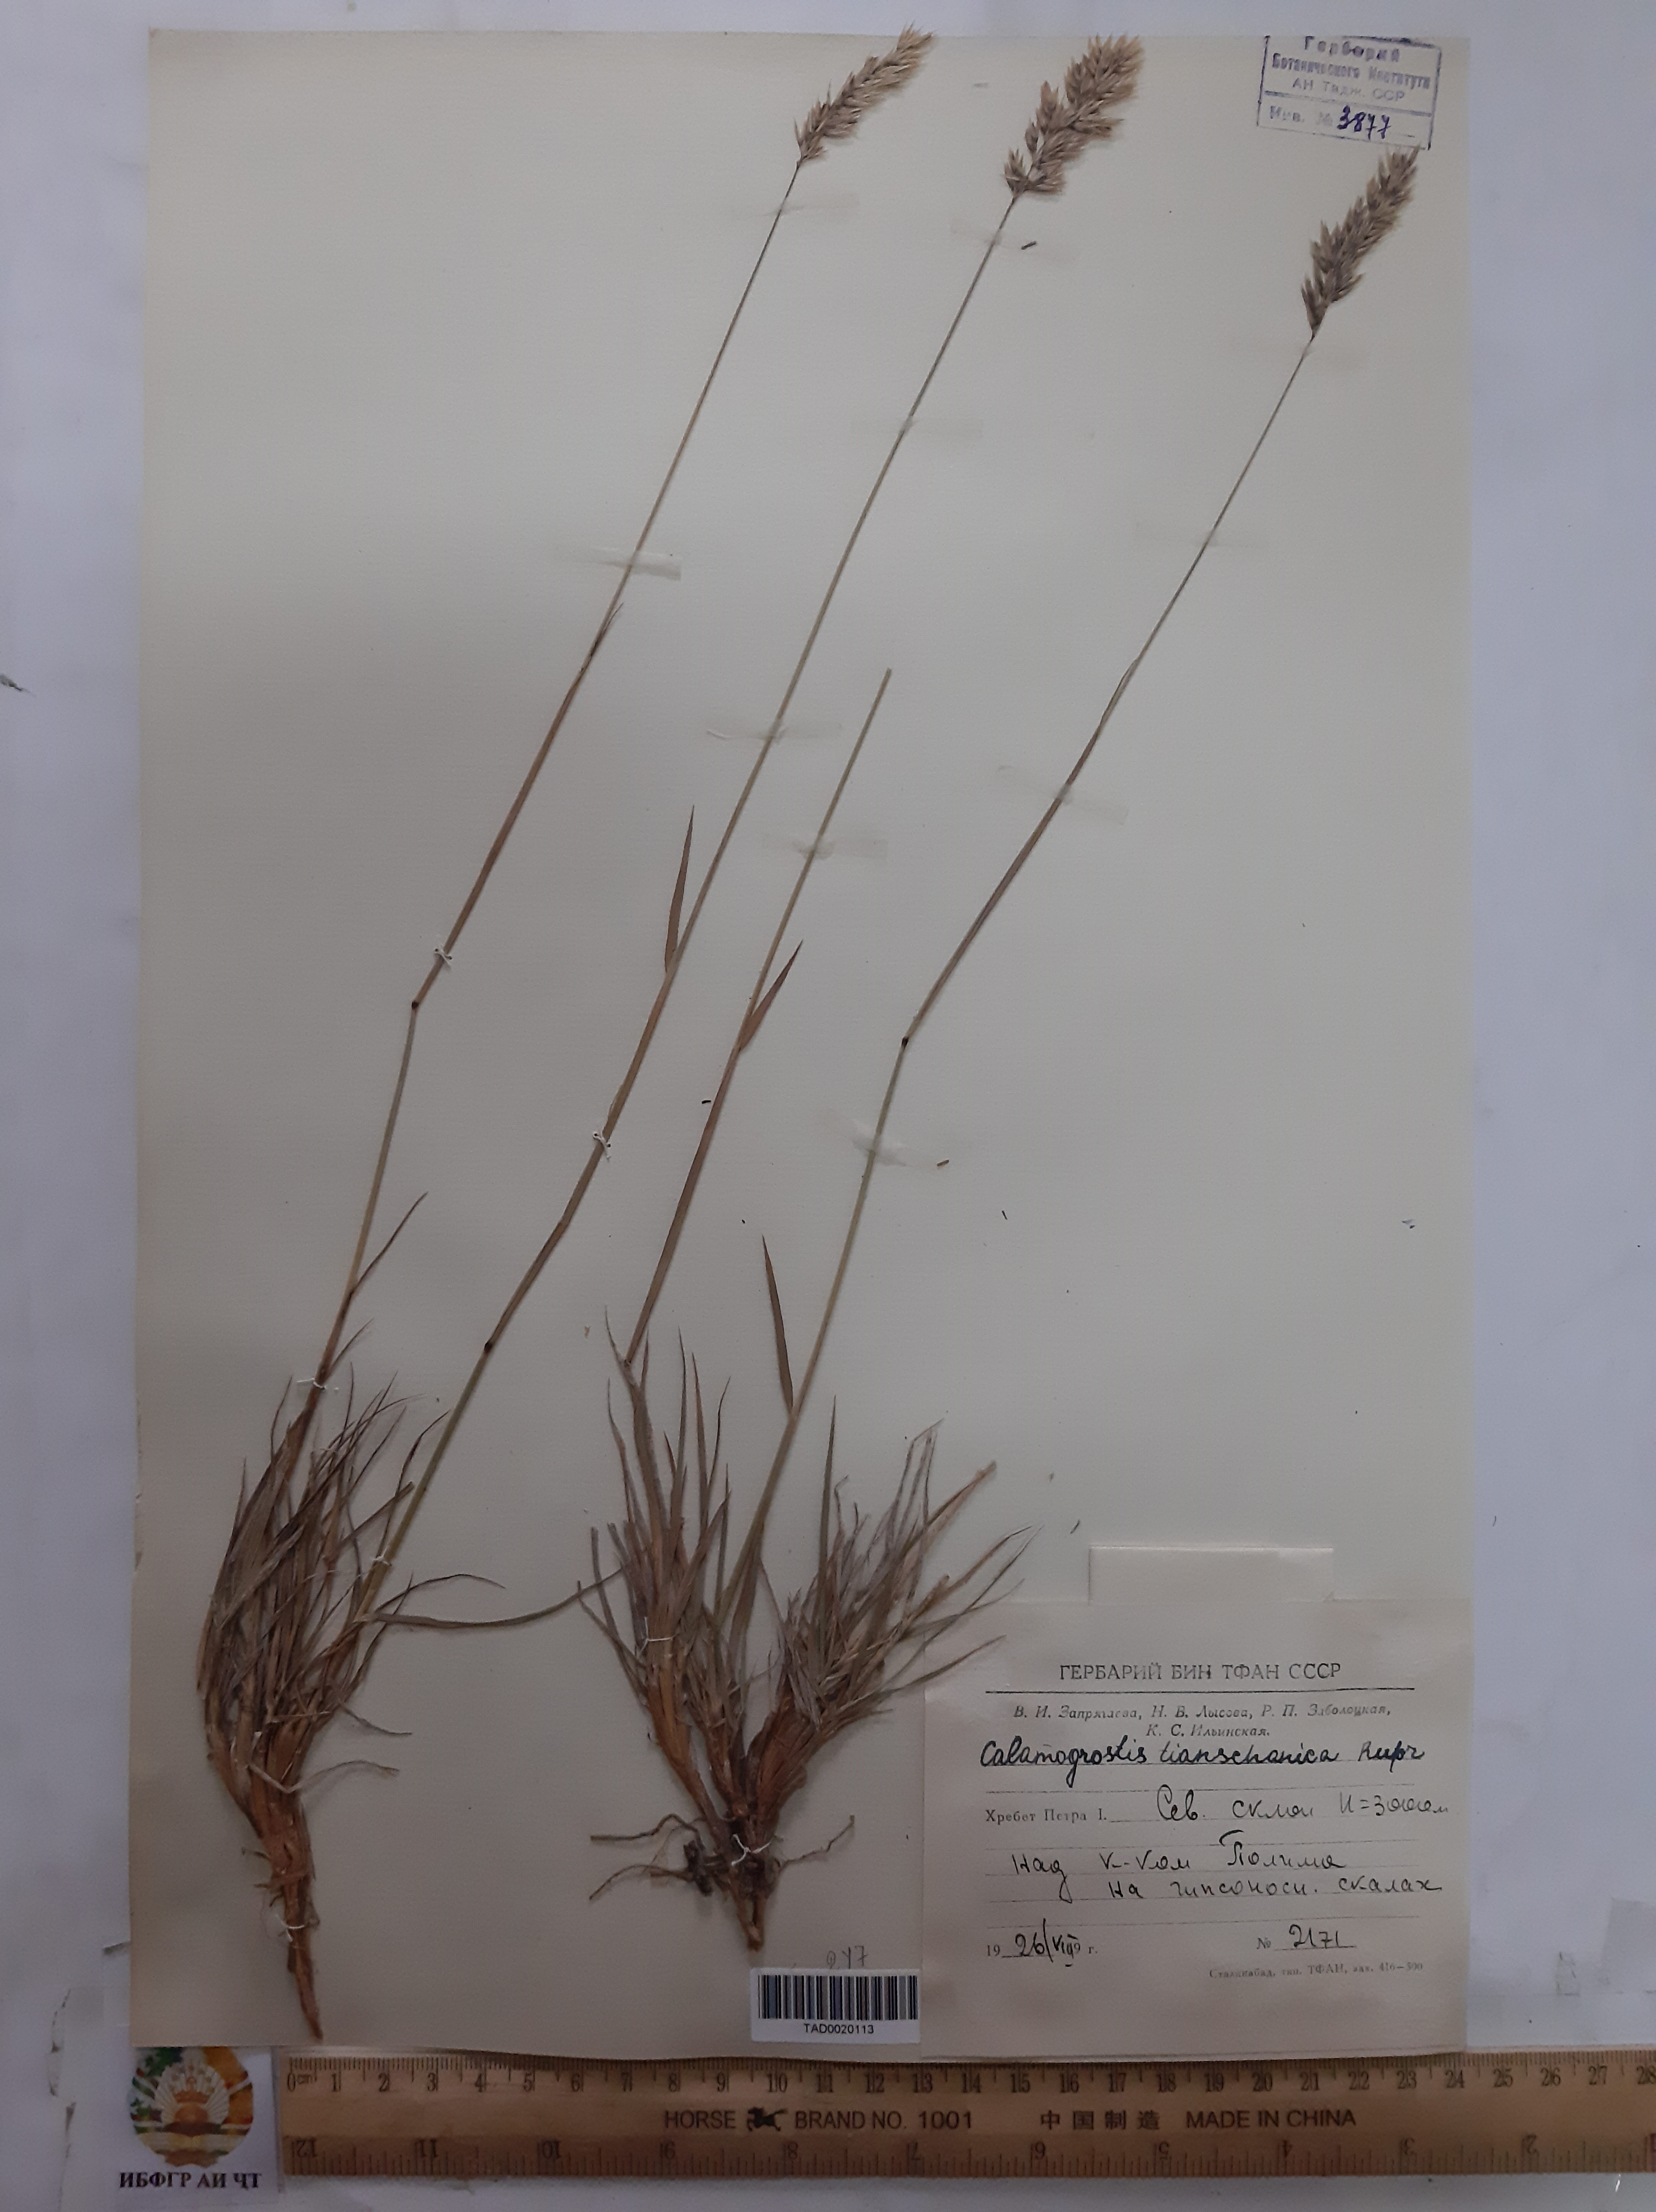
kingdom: Plantae
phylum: Tracheophyta
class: Liliopsida
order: Poales
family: Poaceae
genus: Calamagrostis
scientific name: Calamagrostis tianschanica
